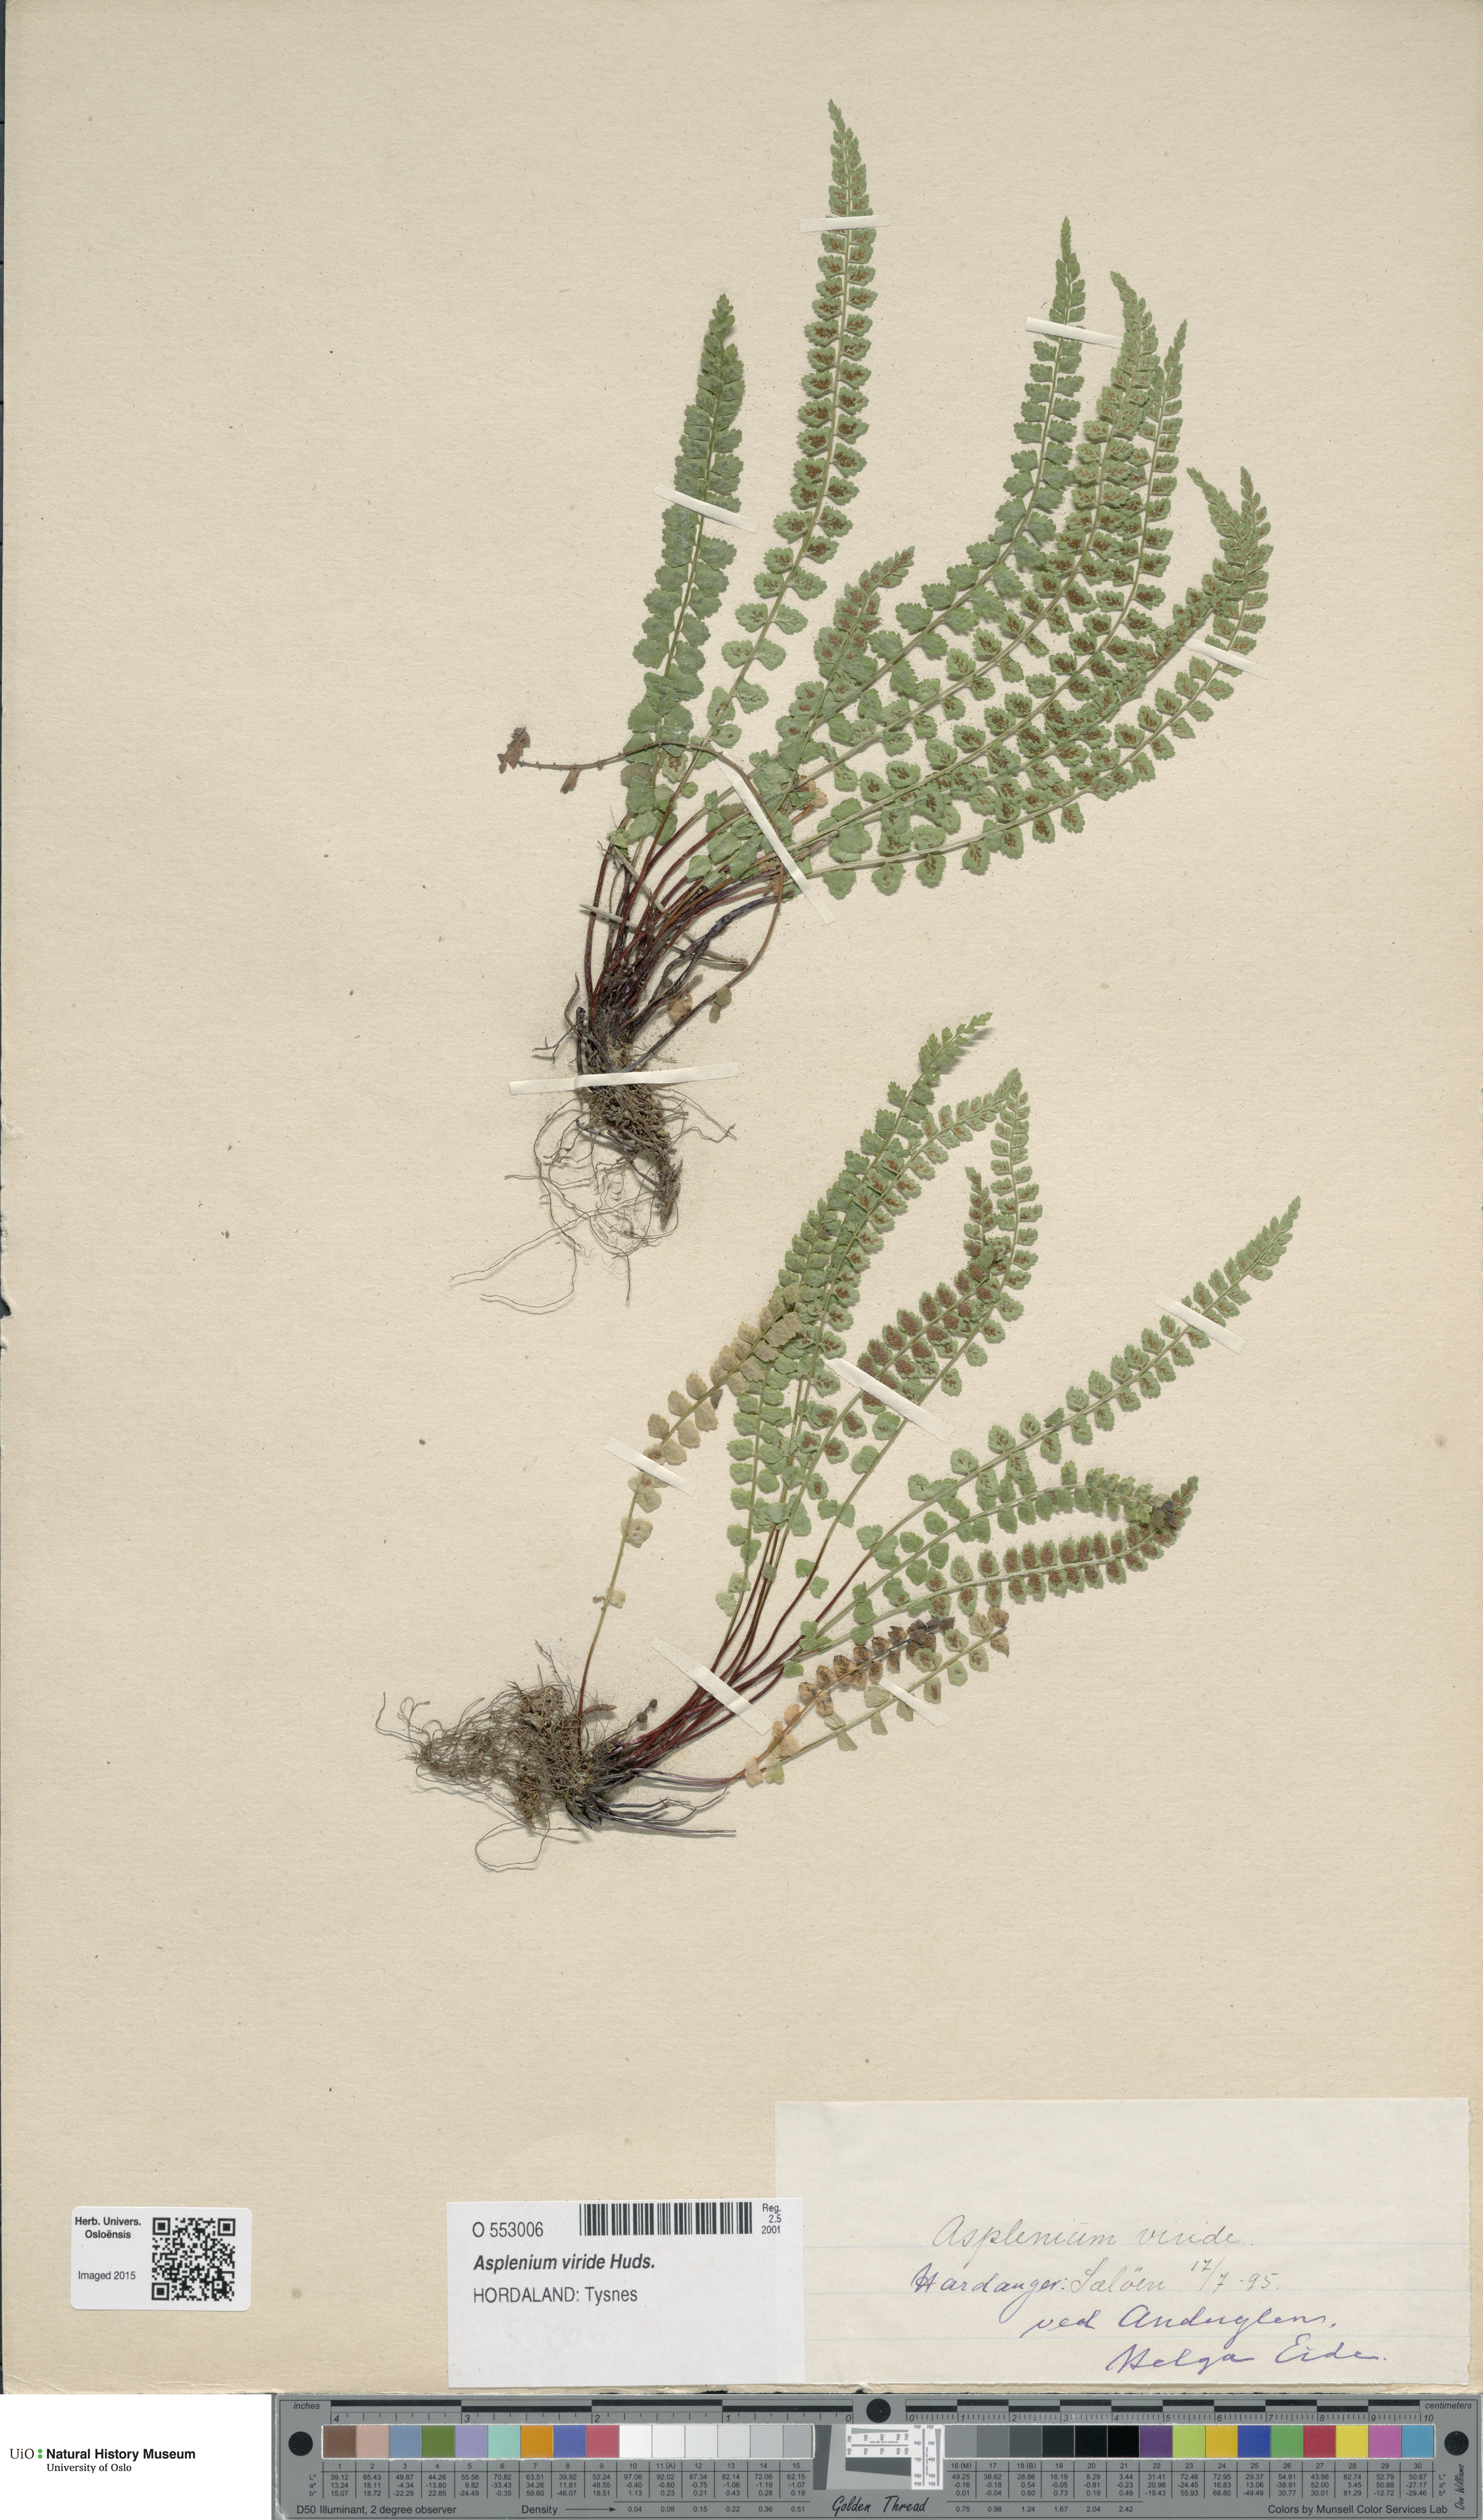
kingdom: Plantae
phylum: Tracheophyta
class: Polypodiopsida
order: Polypodiales
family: Aspleniaceae
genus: Asplenium
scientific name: Asplenium viride
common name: Green spleenwort
